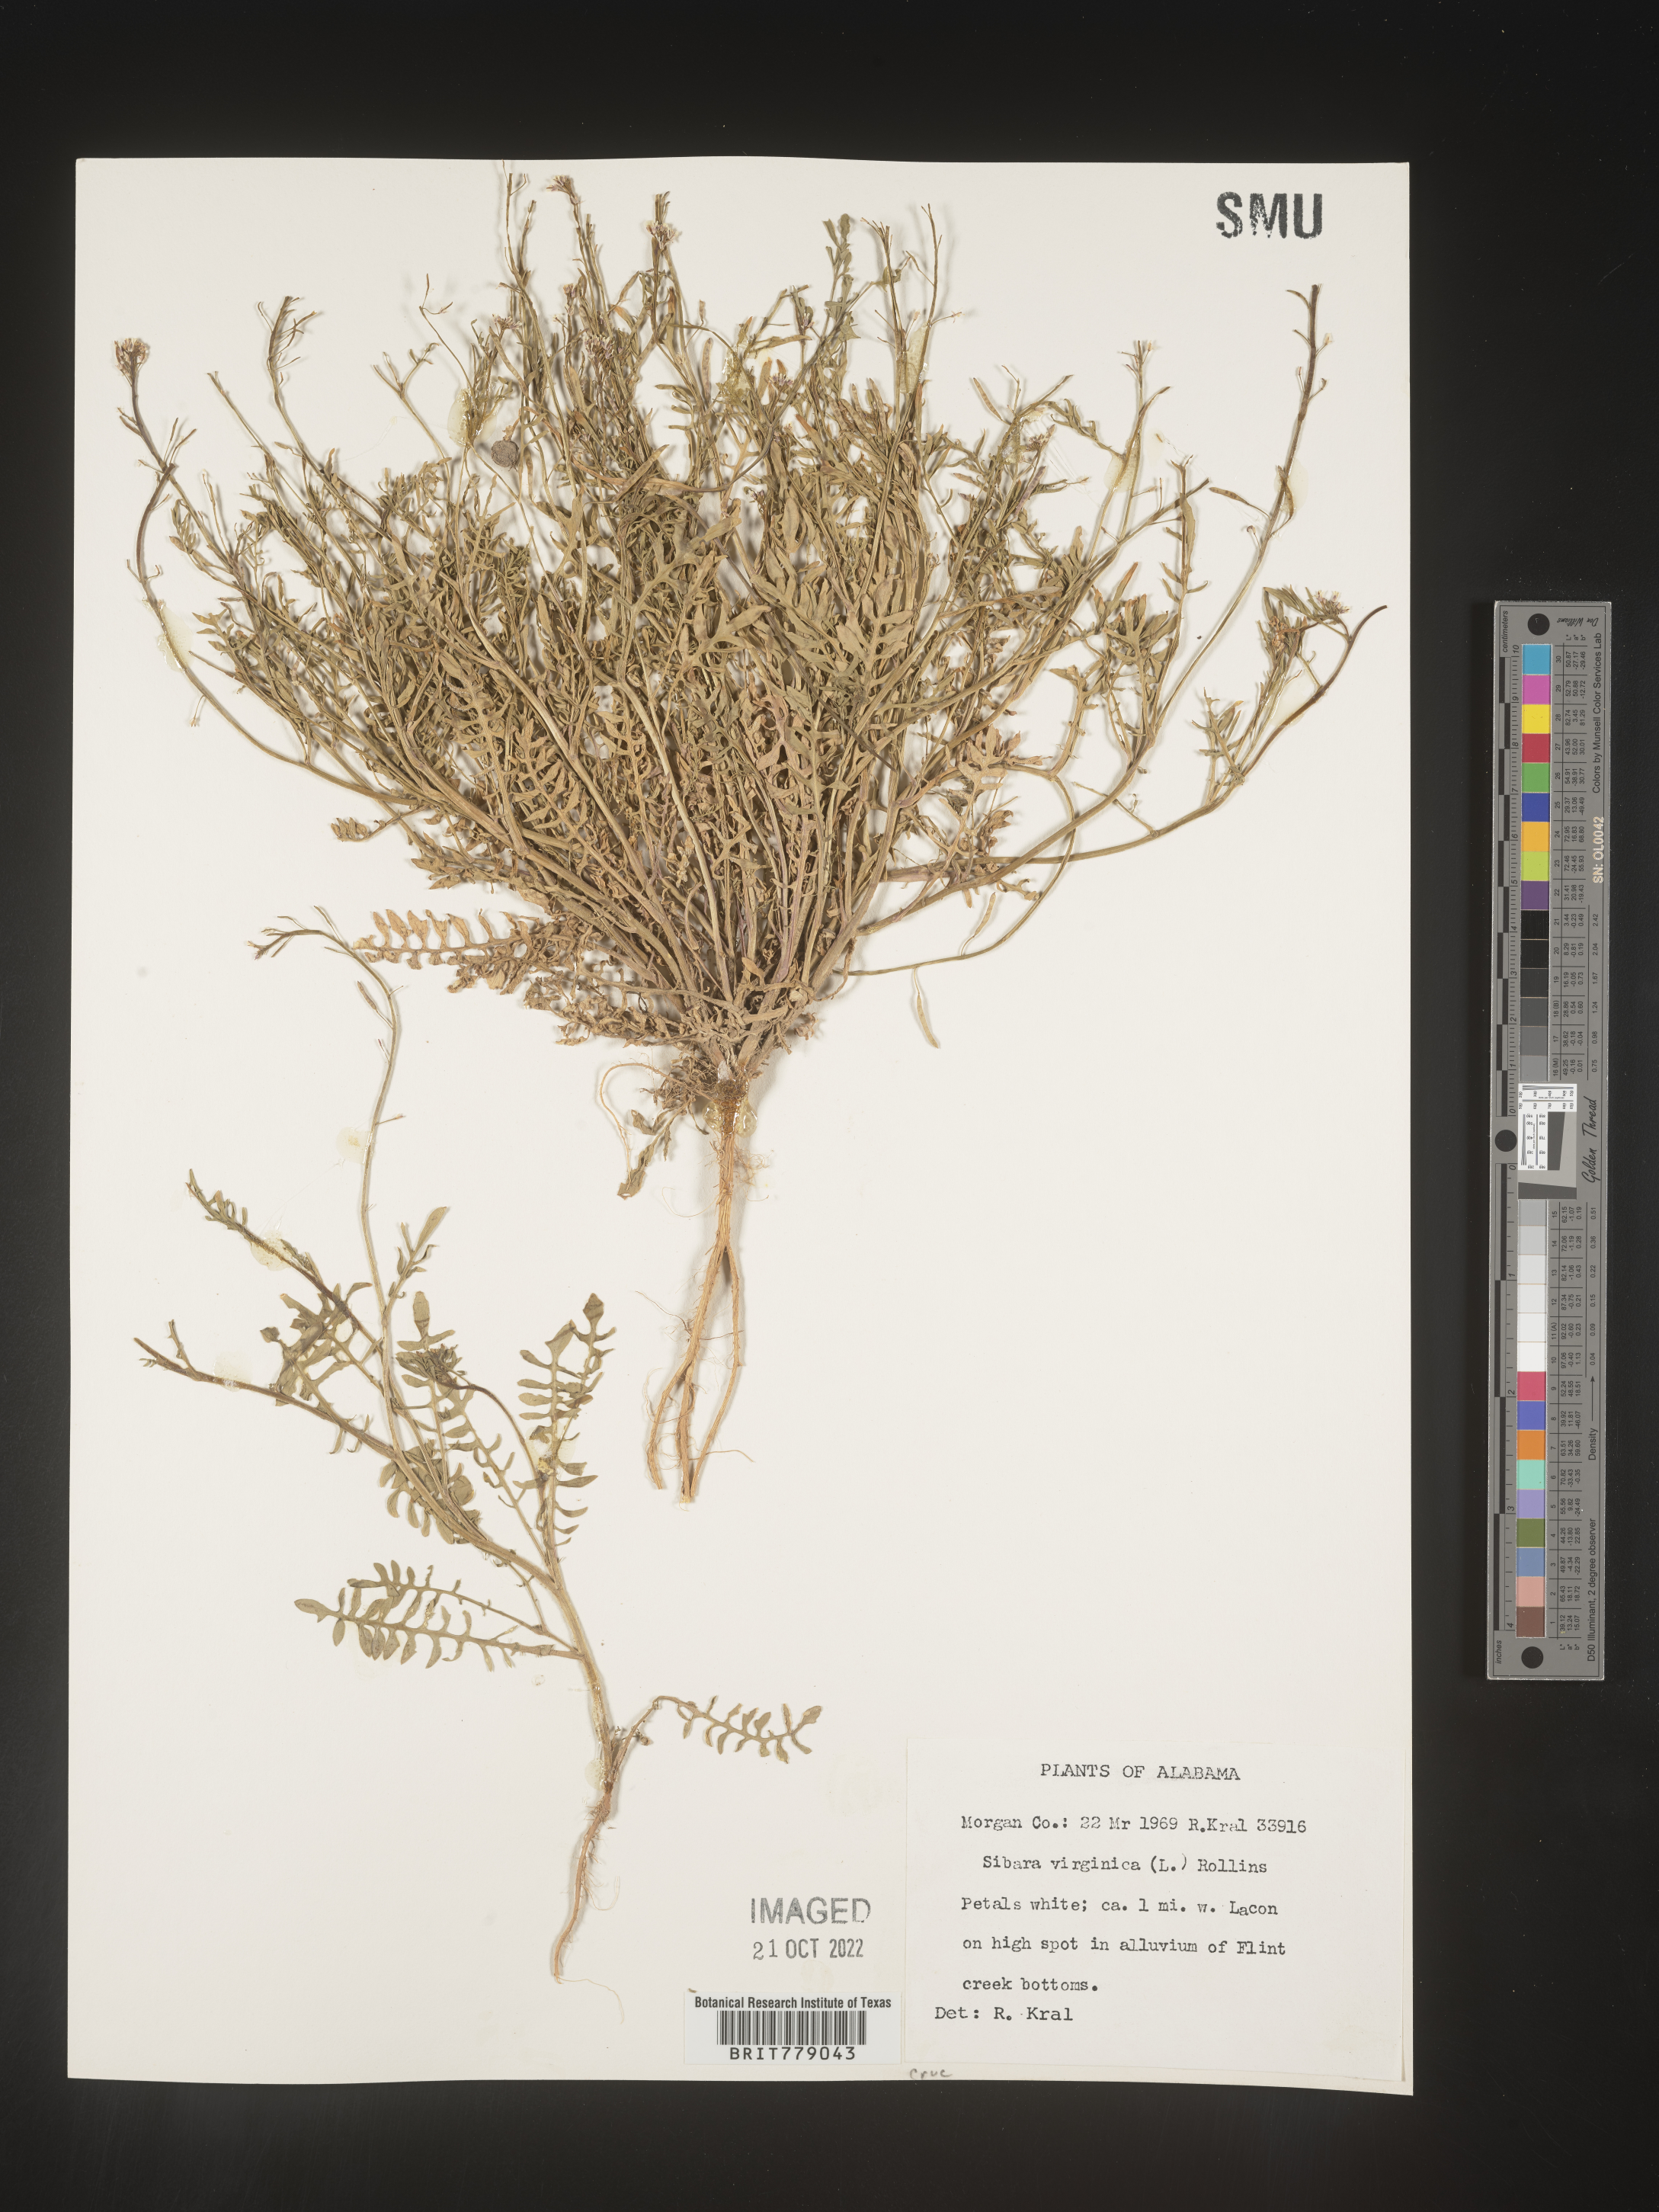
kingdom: Plantae
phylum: Tracheophyta
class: Magnoliopsida
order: Brassicales
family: Brassicaceae
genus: Sibara
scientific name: Sibara
